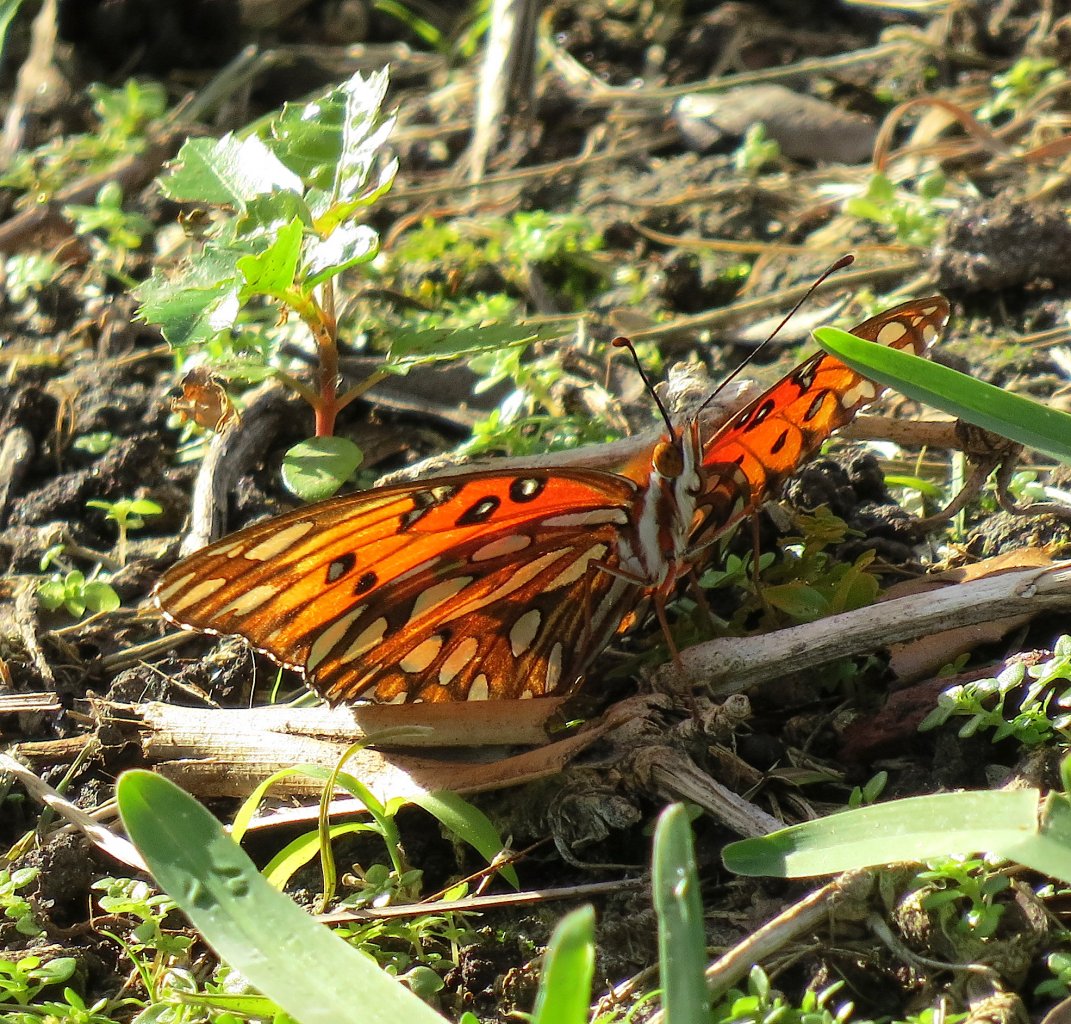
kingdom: Animalia
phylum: Arthropoda
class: Insecta
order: Lepidoptera
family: Nymphalidae
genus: Dione
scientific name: Dione vanillae
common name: Gulf Fritillary
